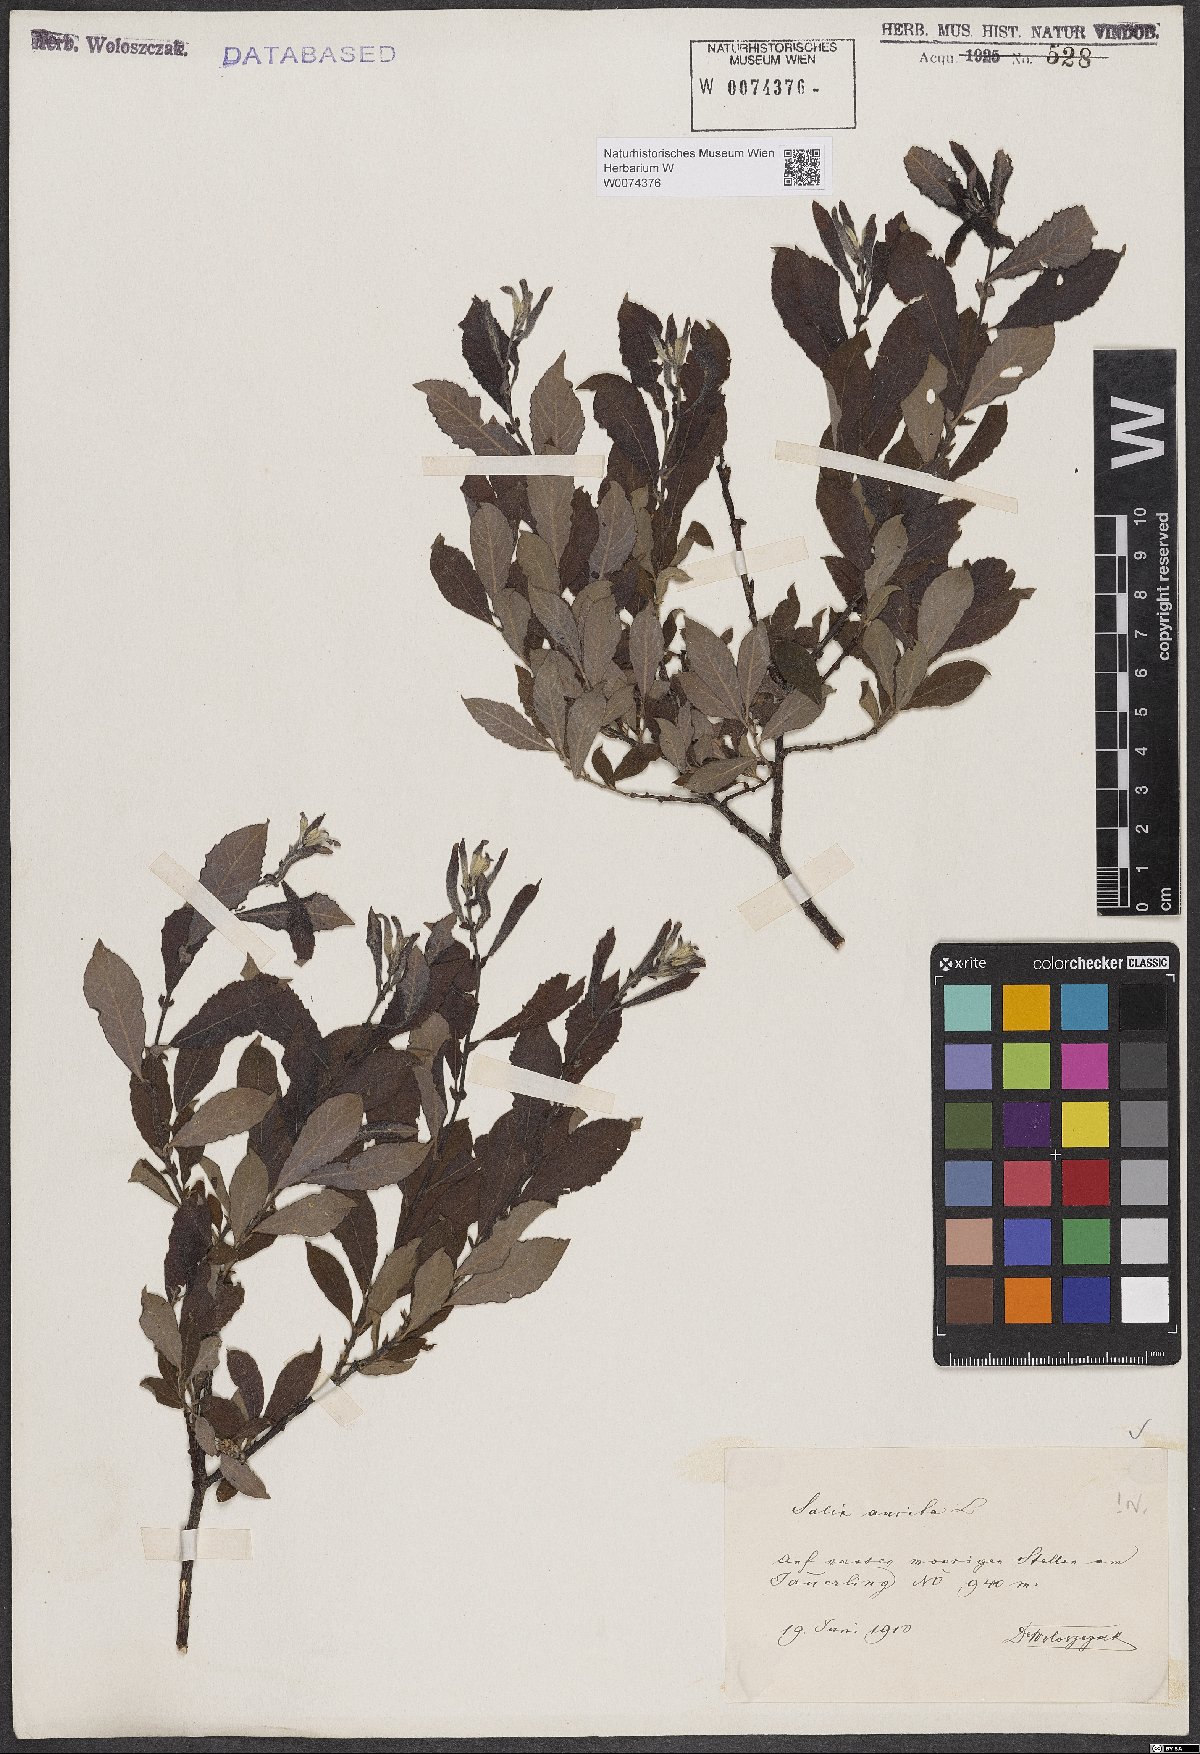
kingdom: Plantae
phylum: Tracheophyta
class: Magnoliopsida
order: Malpighiales
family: Salicaceae
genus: Salix
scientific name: Salix aurita
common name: Eared willow
